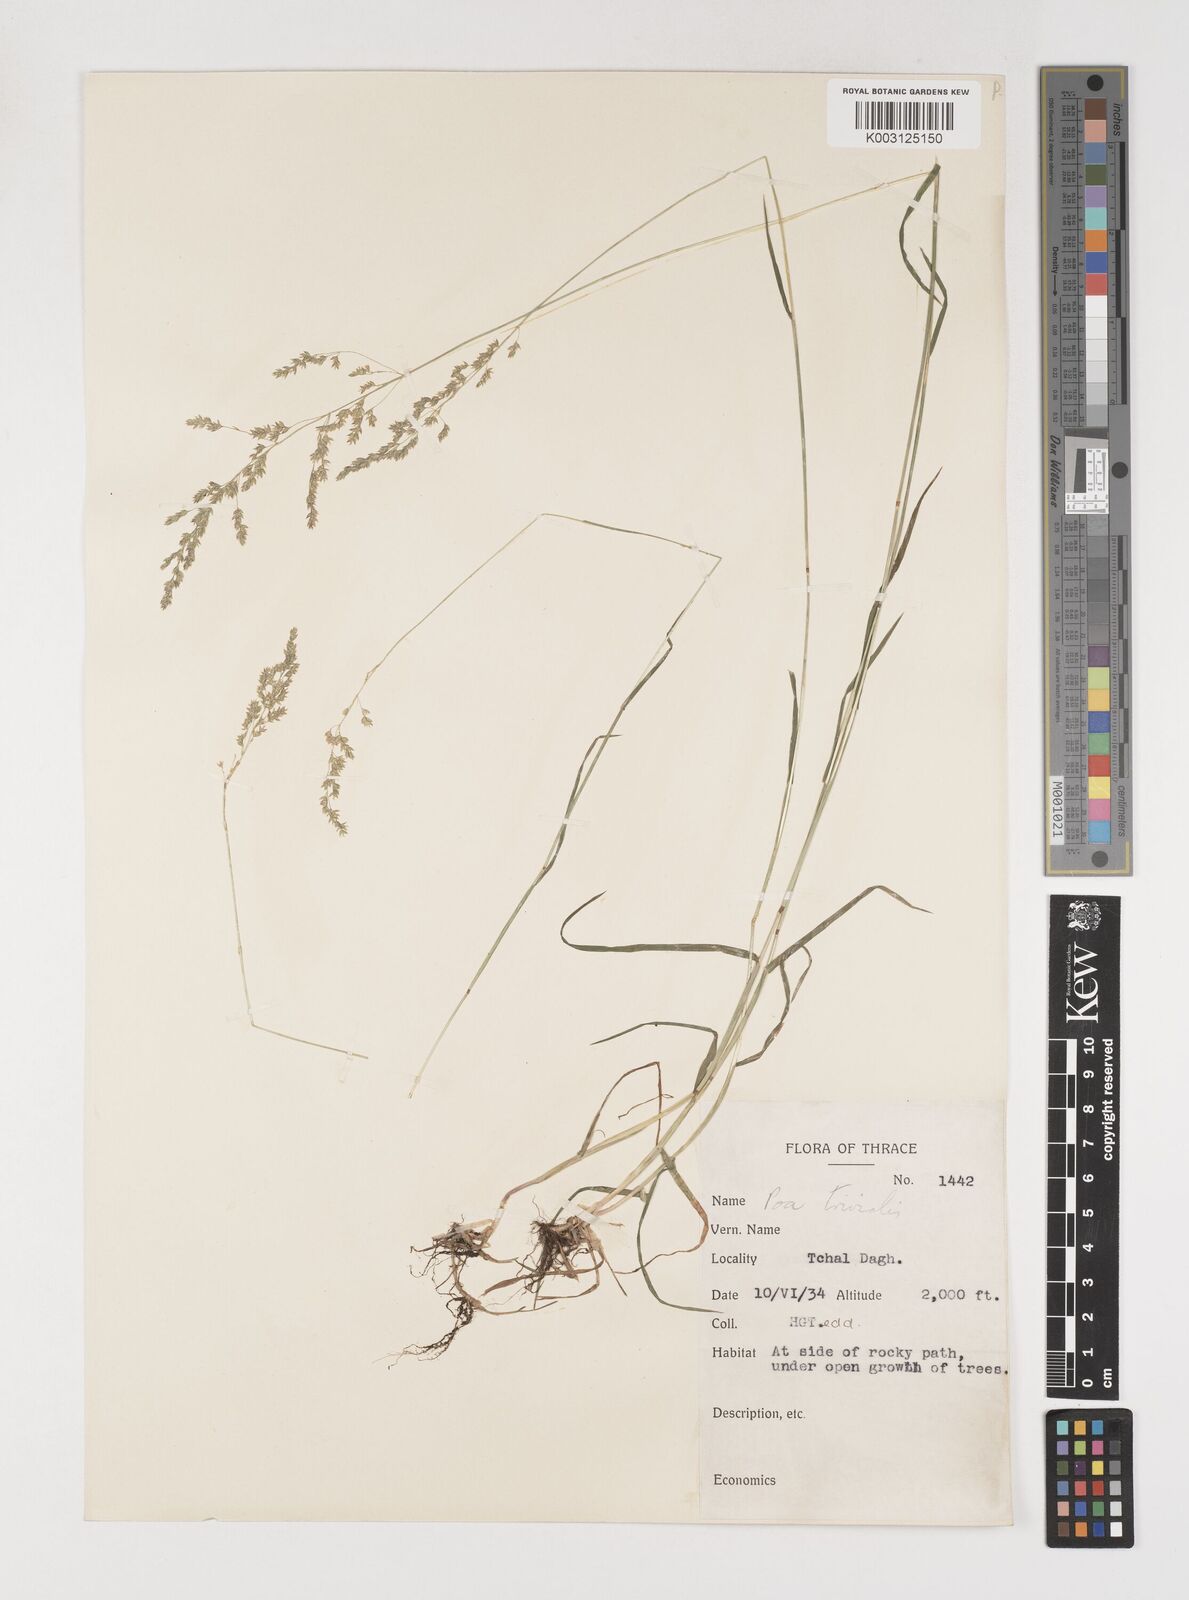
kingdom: Plantae
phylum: Tracheophyta
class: Liliopsida
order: Poales
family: Poaceae
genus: Poa
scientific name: Poa trivialis
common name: Rough bluegrass
